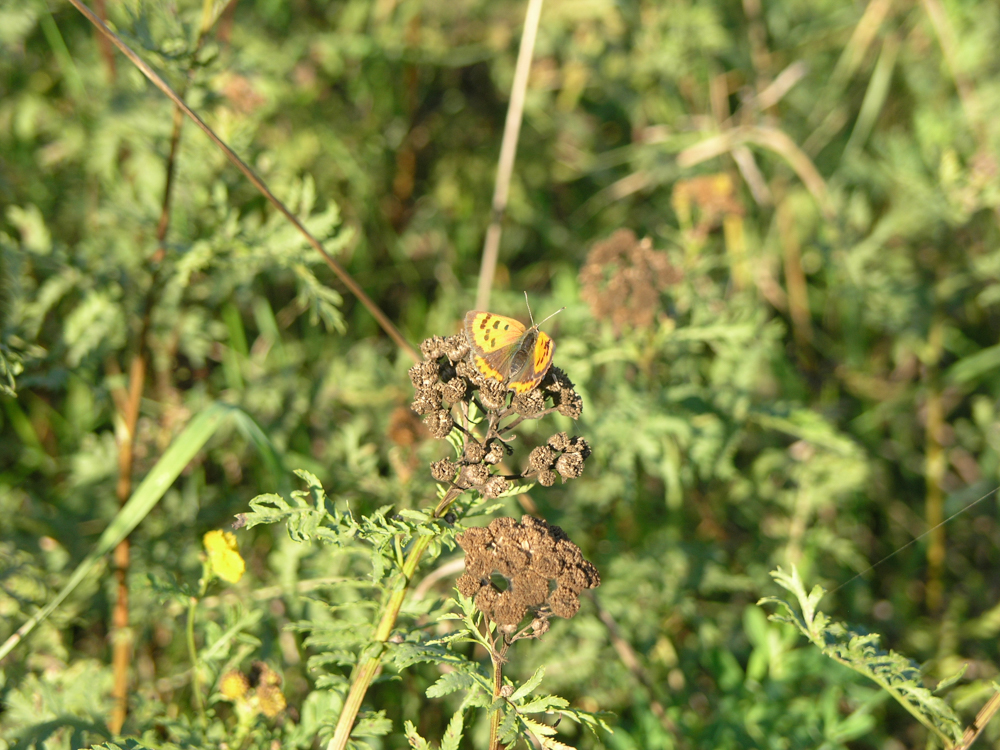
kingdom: Animalia
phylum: Arthropoda
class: Insecta
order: Lepidoptera
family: Lycaenidae
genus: Lycaena
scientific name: Lycaena phlaeas
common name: Small copper
